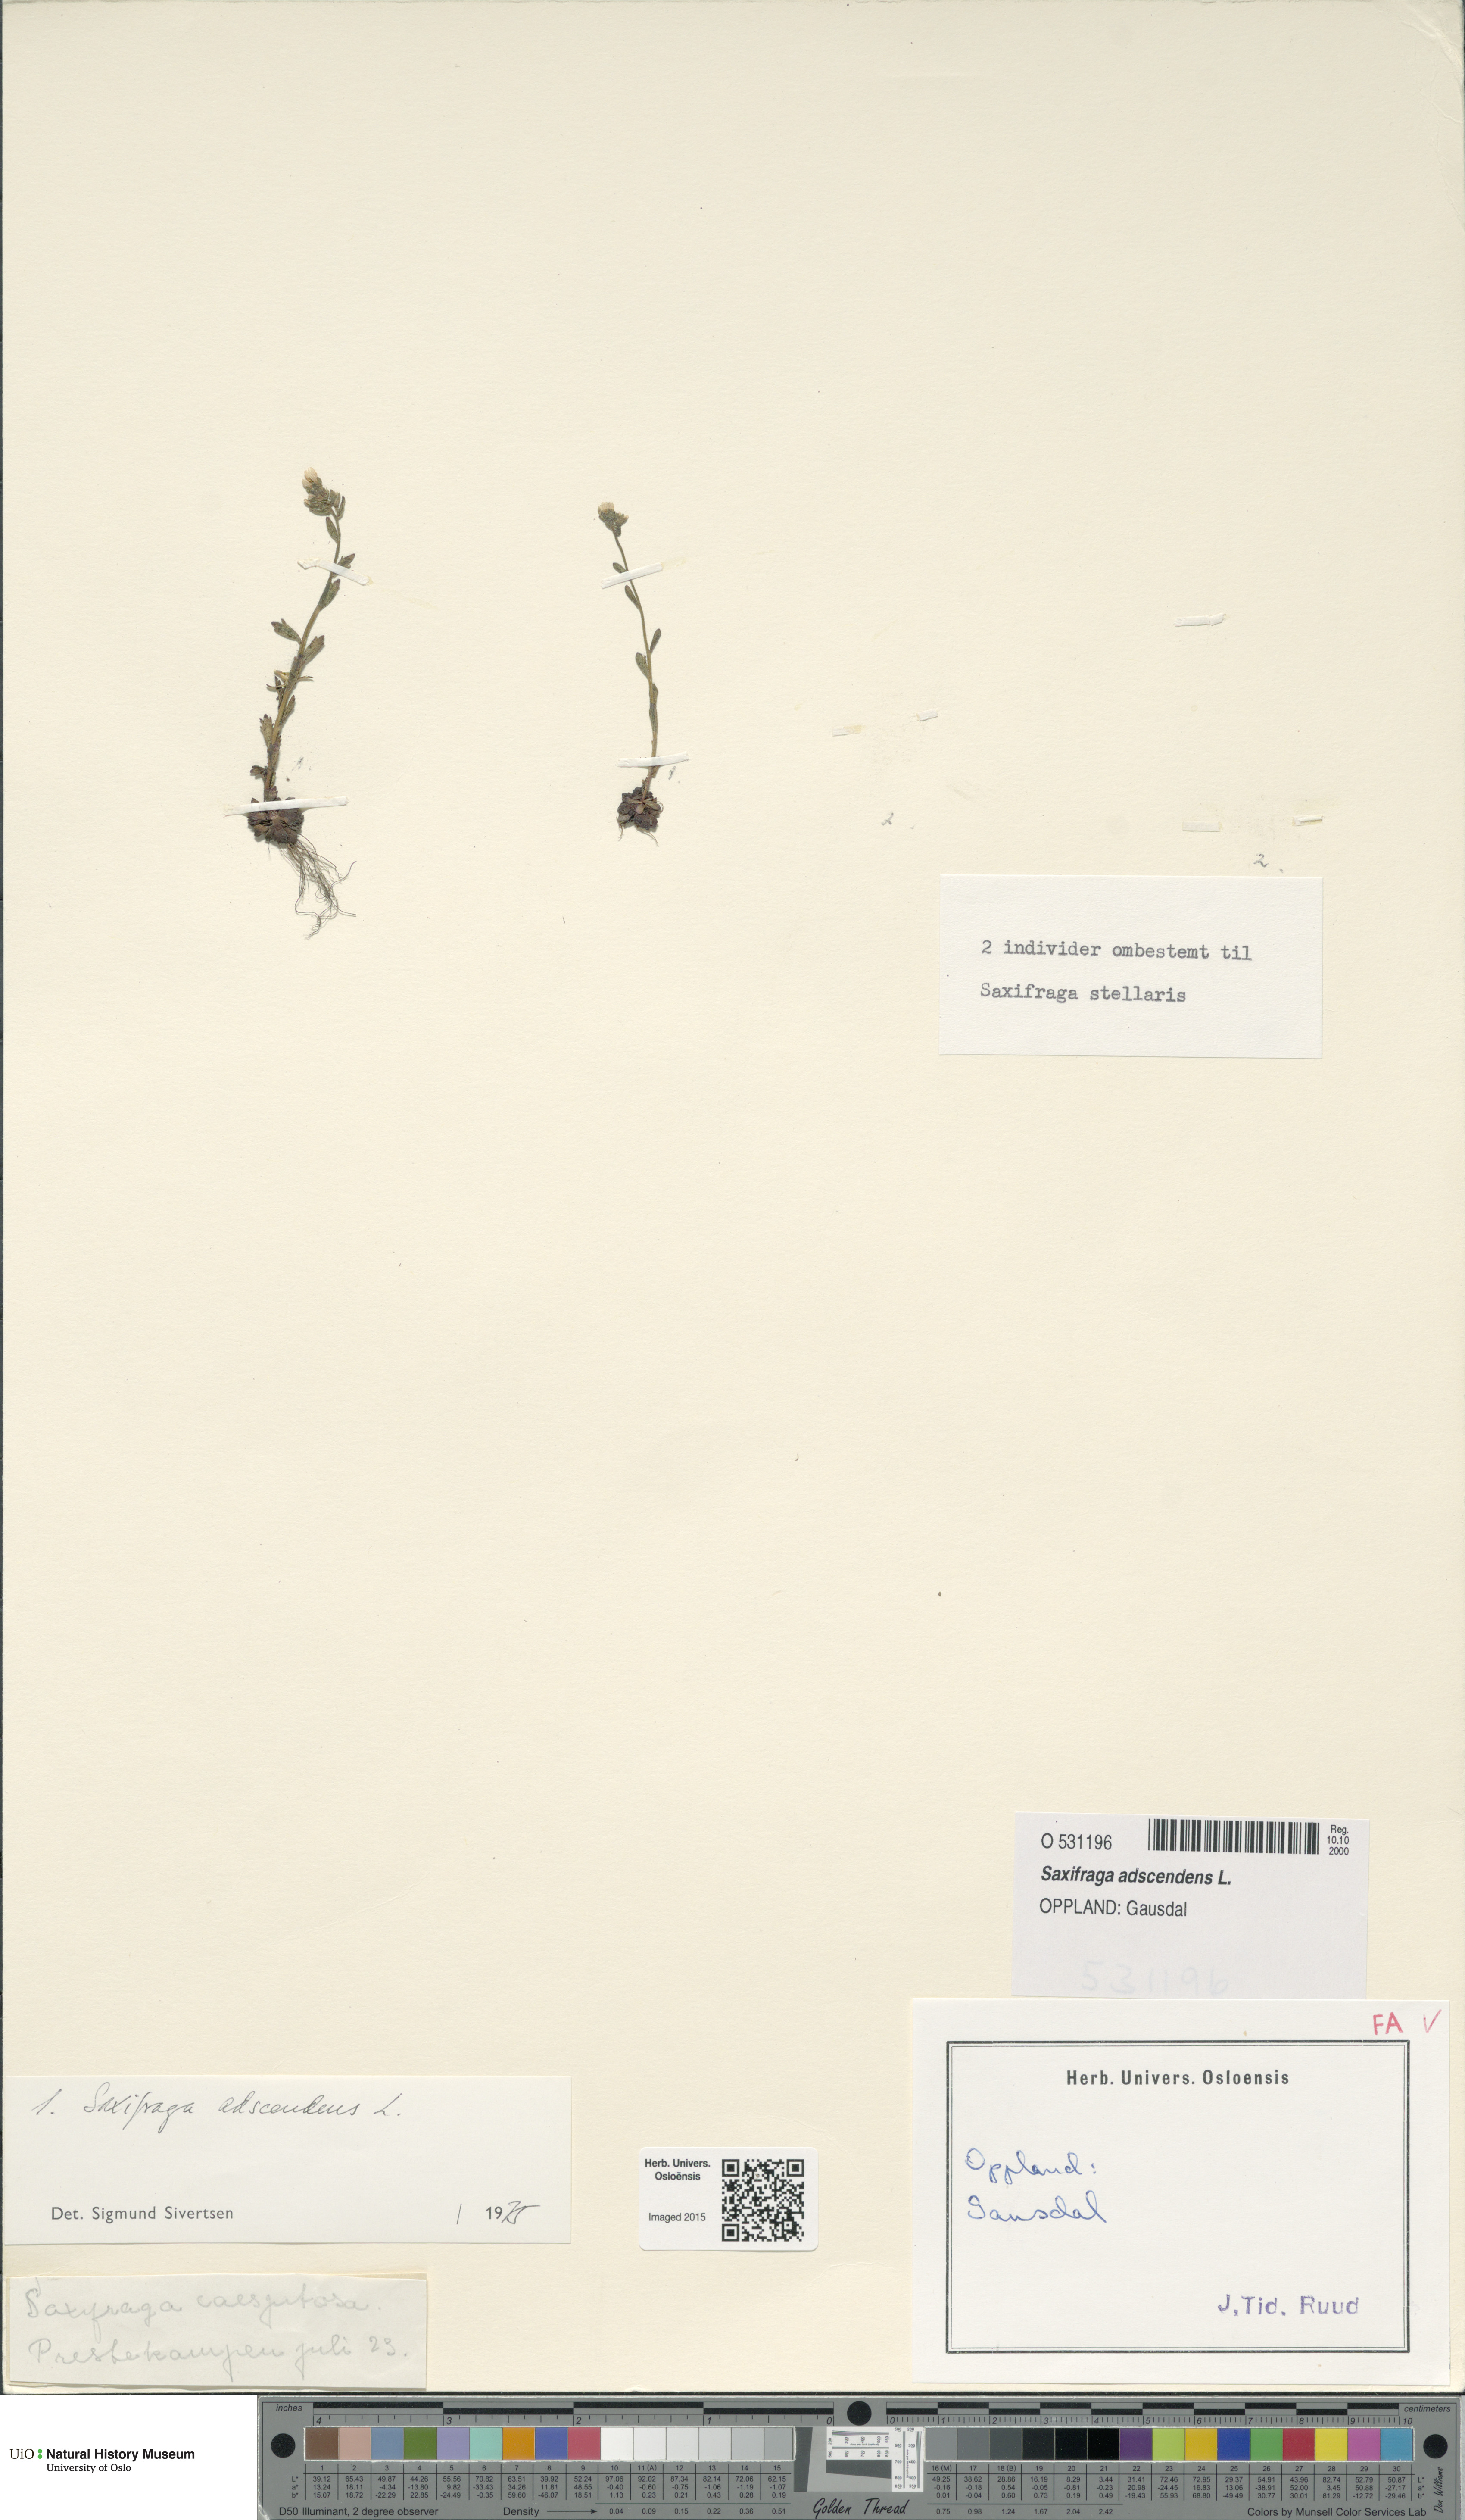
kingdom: Plantae
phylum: Tracheophyta
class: Magnoliopsida
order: Saxifragales
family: Saxifragaceae
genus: Saxifraga
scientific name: Saxifraga adscendens
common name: Ascending saxifrage
